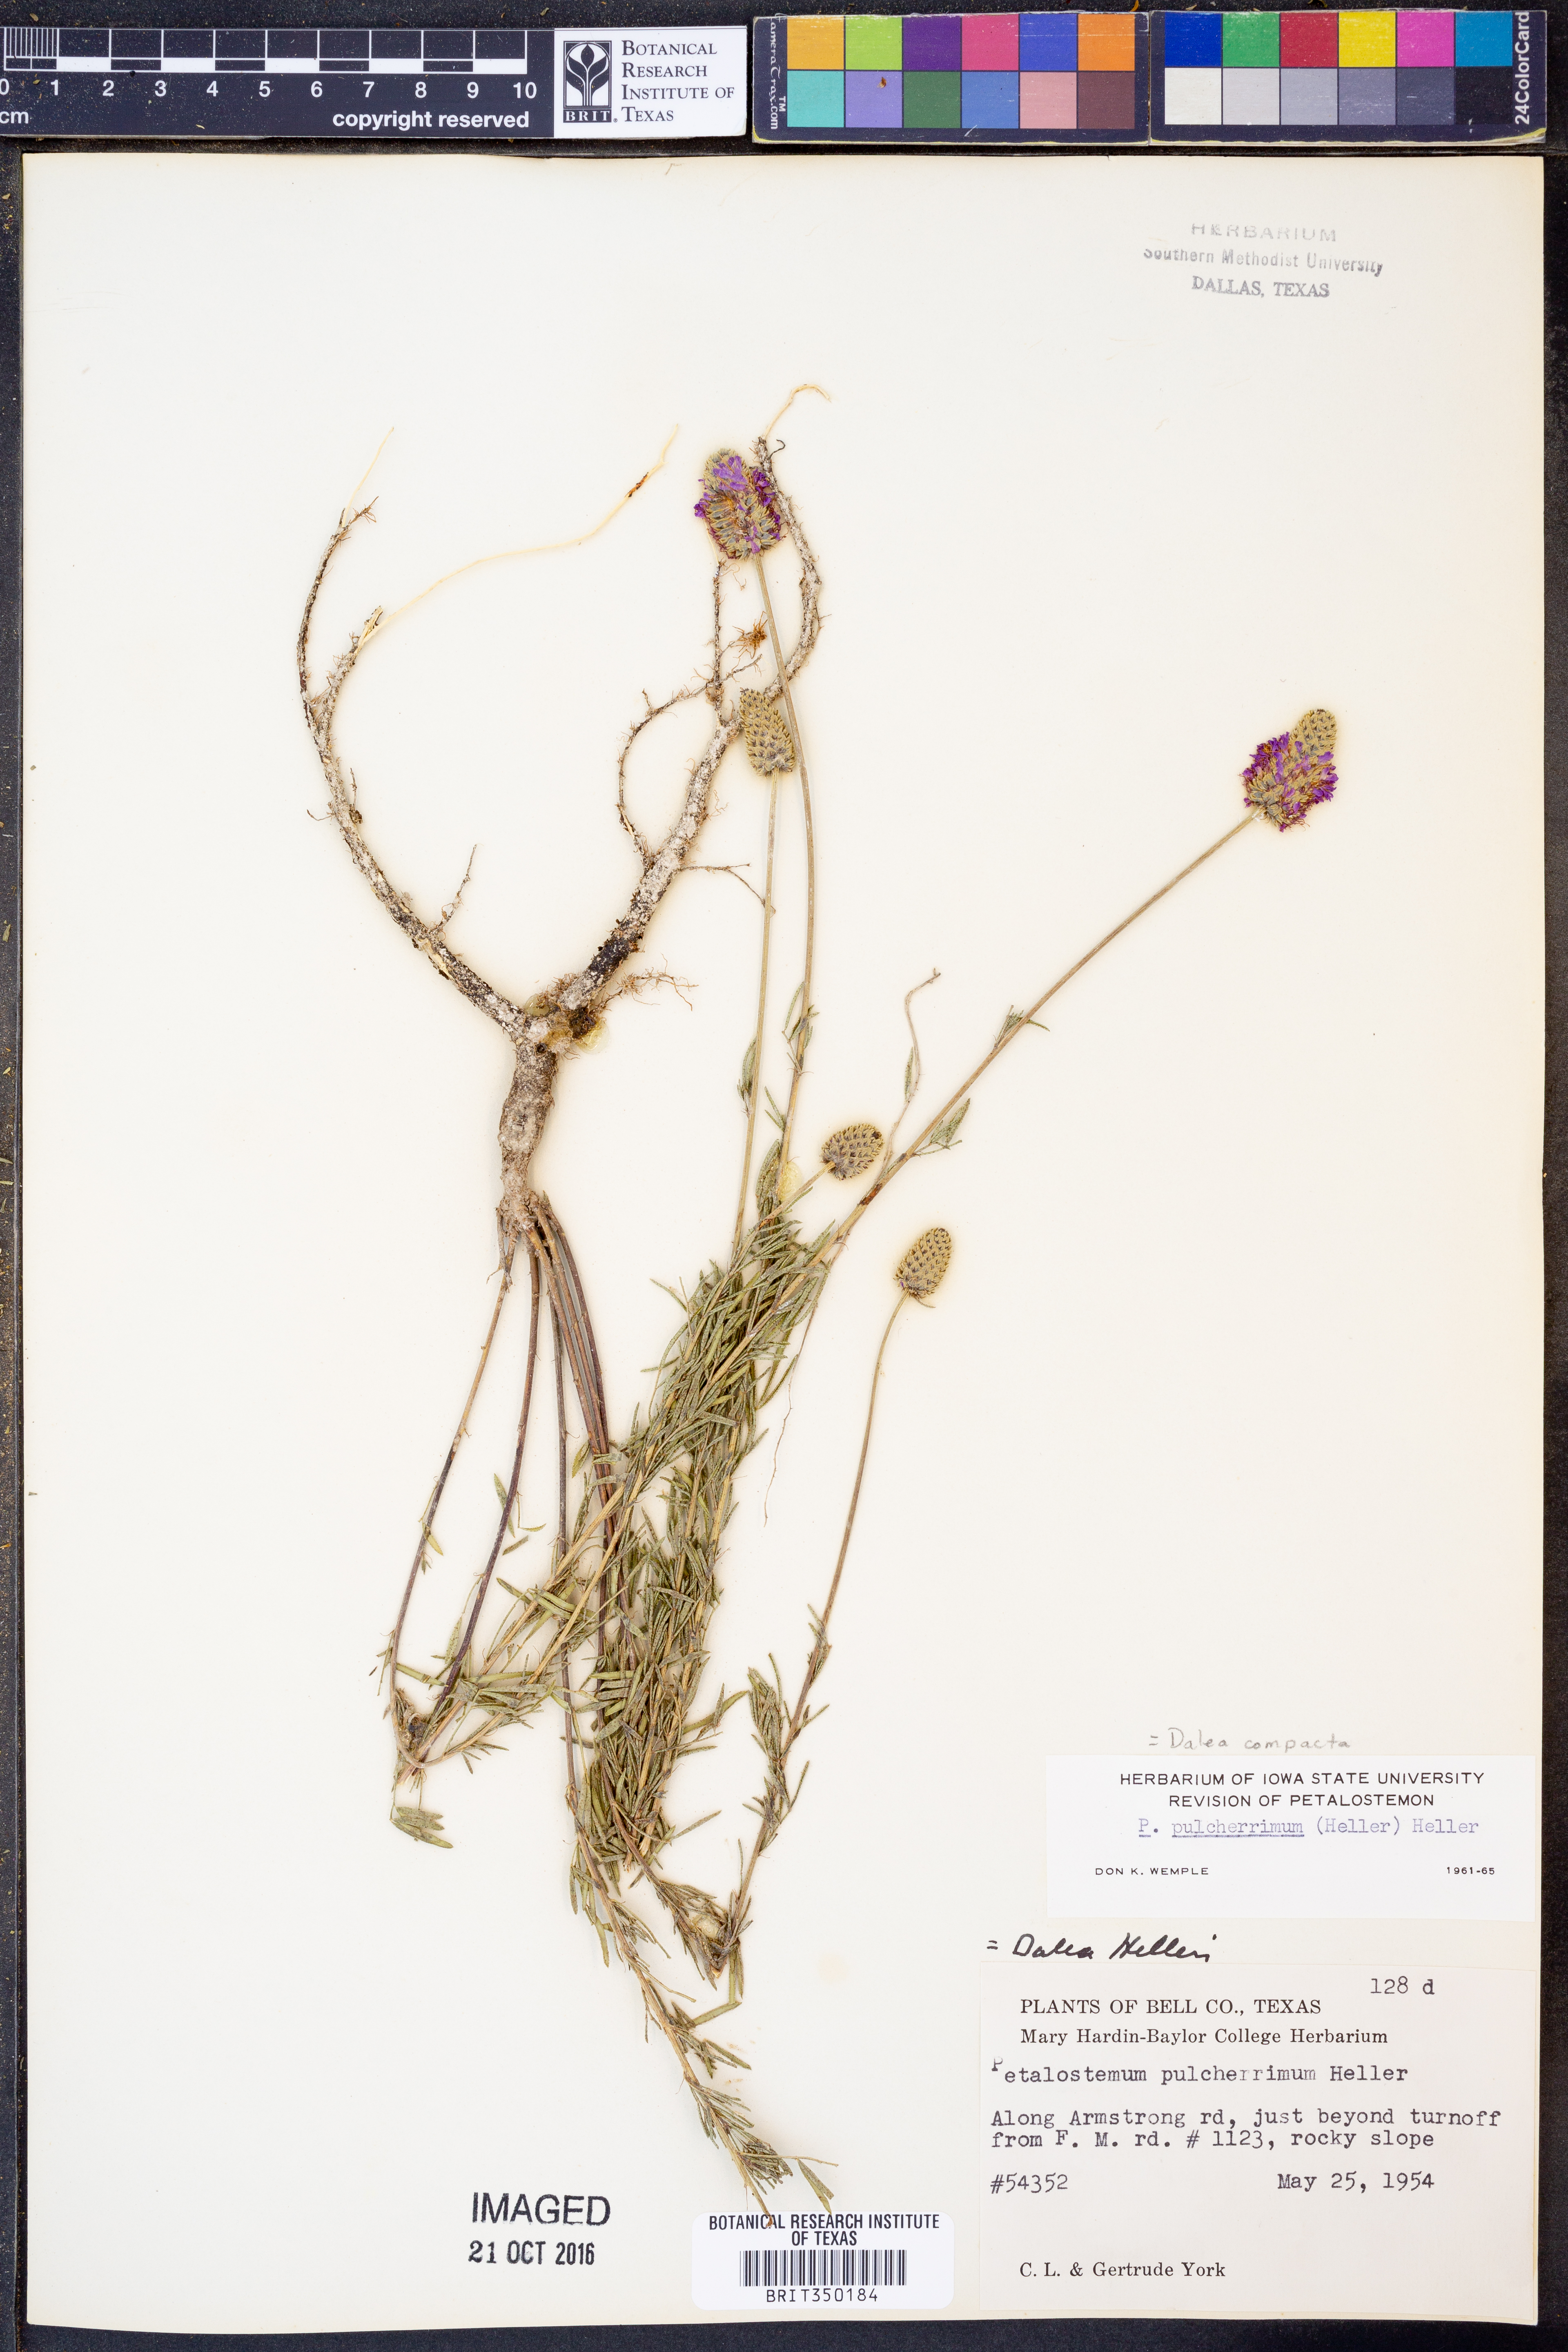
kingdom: Plantae
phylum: Tracheophyta
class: Magnoliopsida
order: Fabales
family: Fabaceae
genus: Dalea
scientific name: Dalea compacta
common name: Compact prairie-clover
